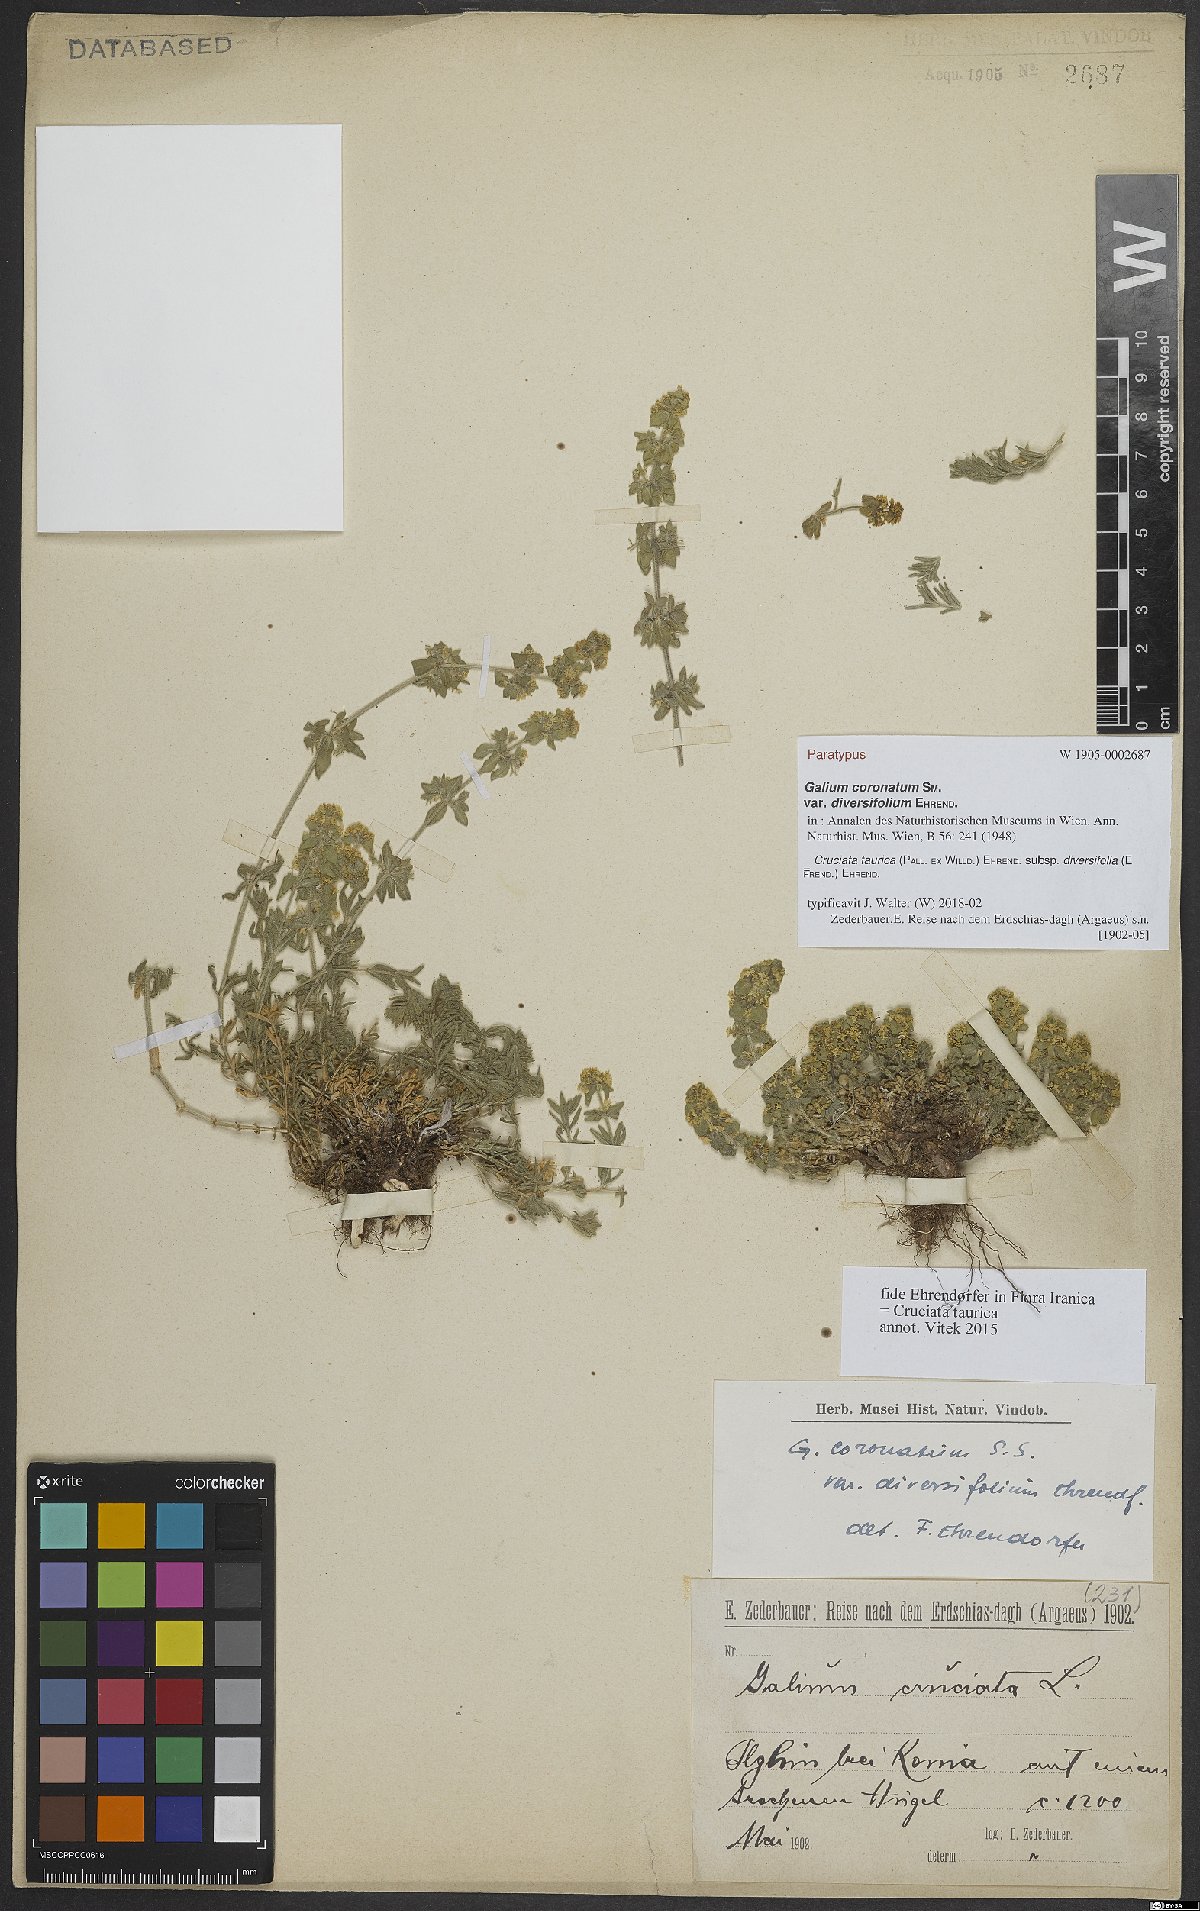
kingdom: Plantae
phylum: Tracheophyta
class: Magnoliopsida
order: Gentianales
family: Rubiaceae
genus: Cruciata
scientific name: Cruciata taurica
